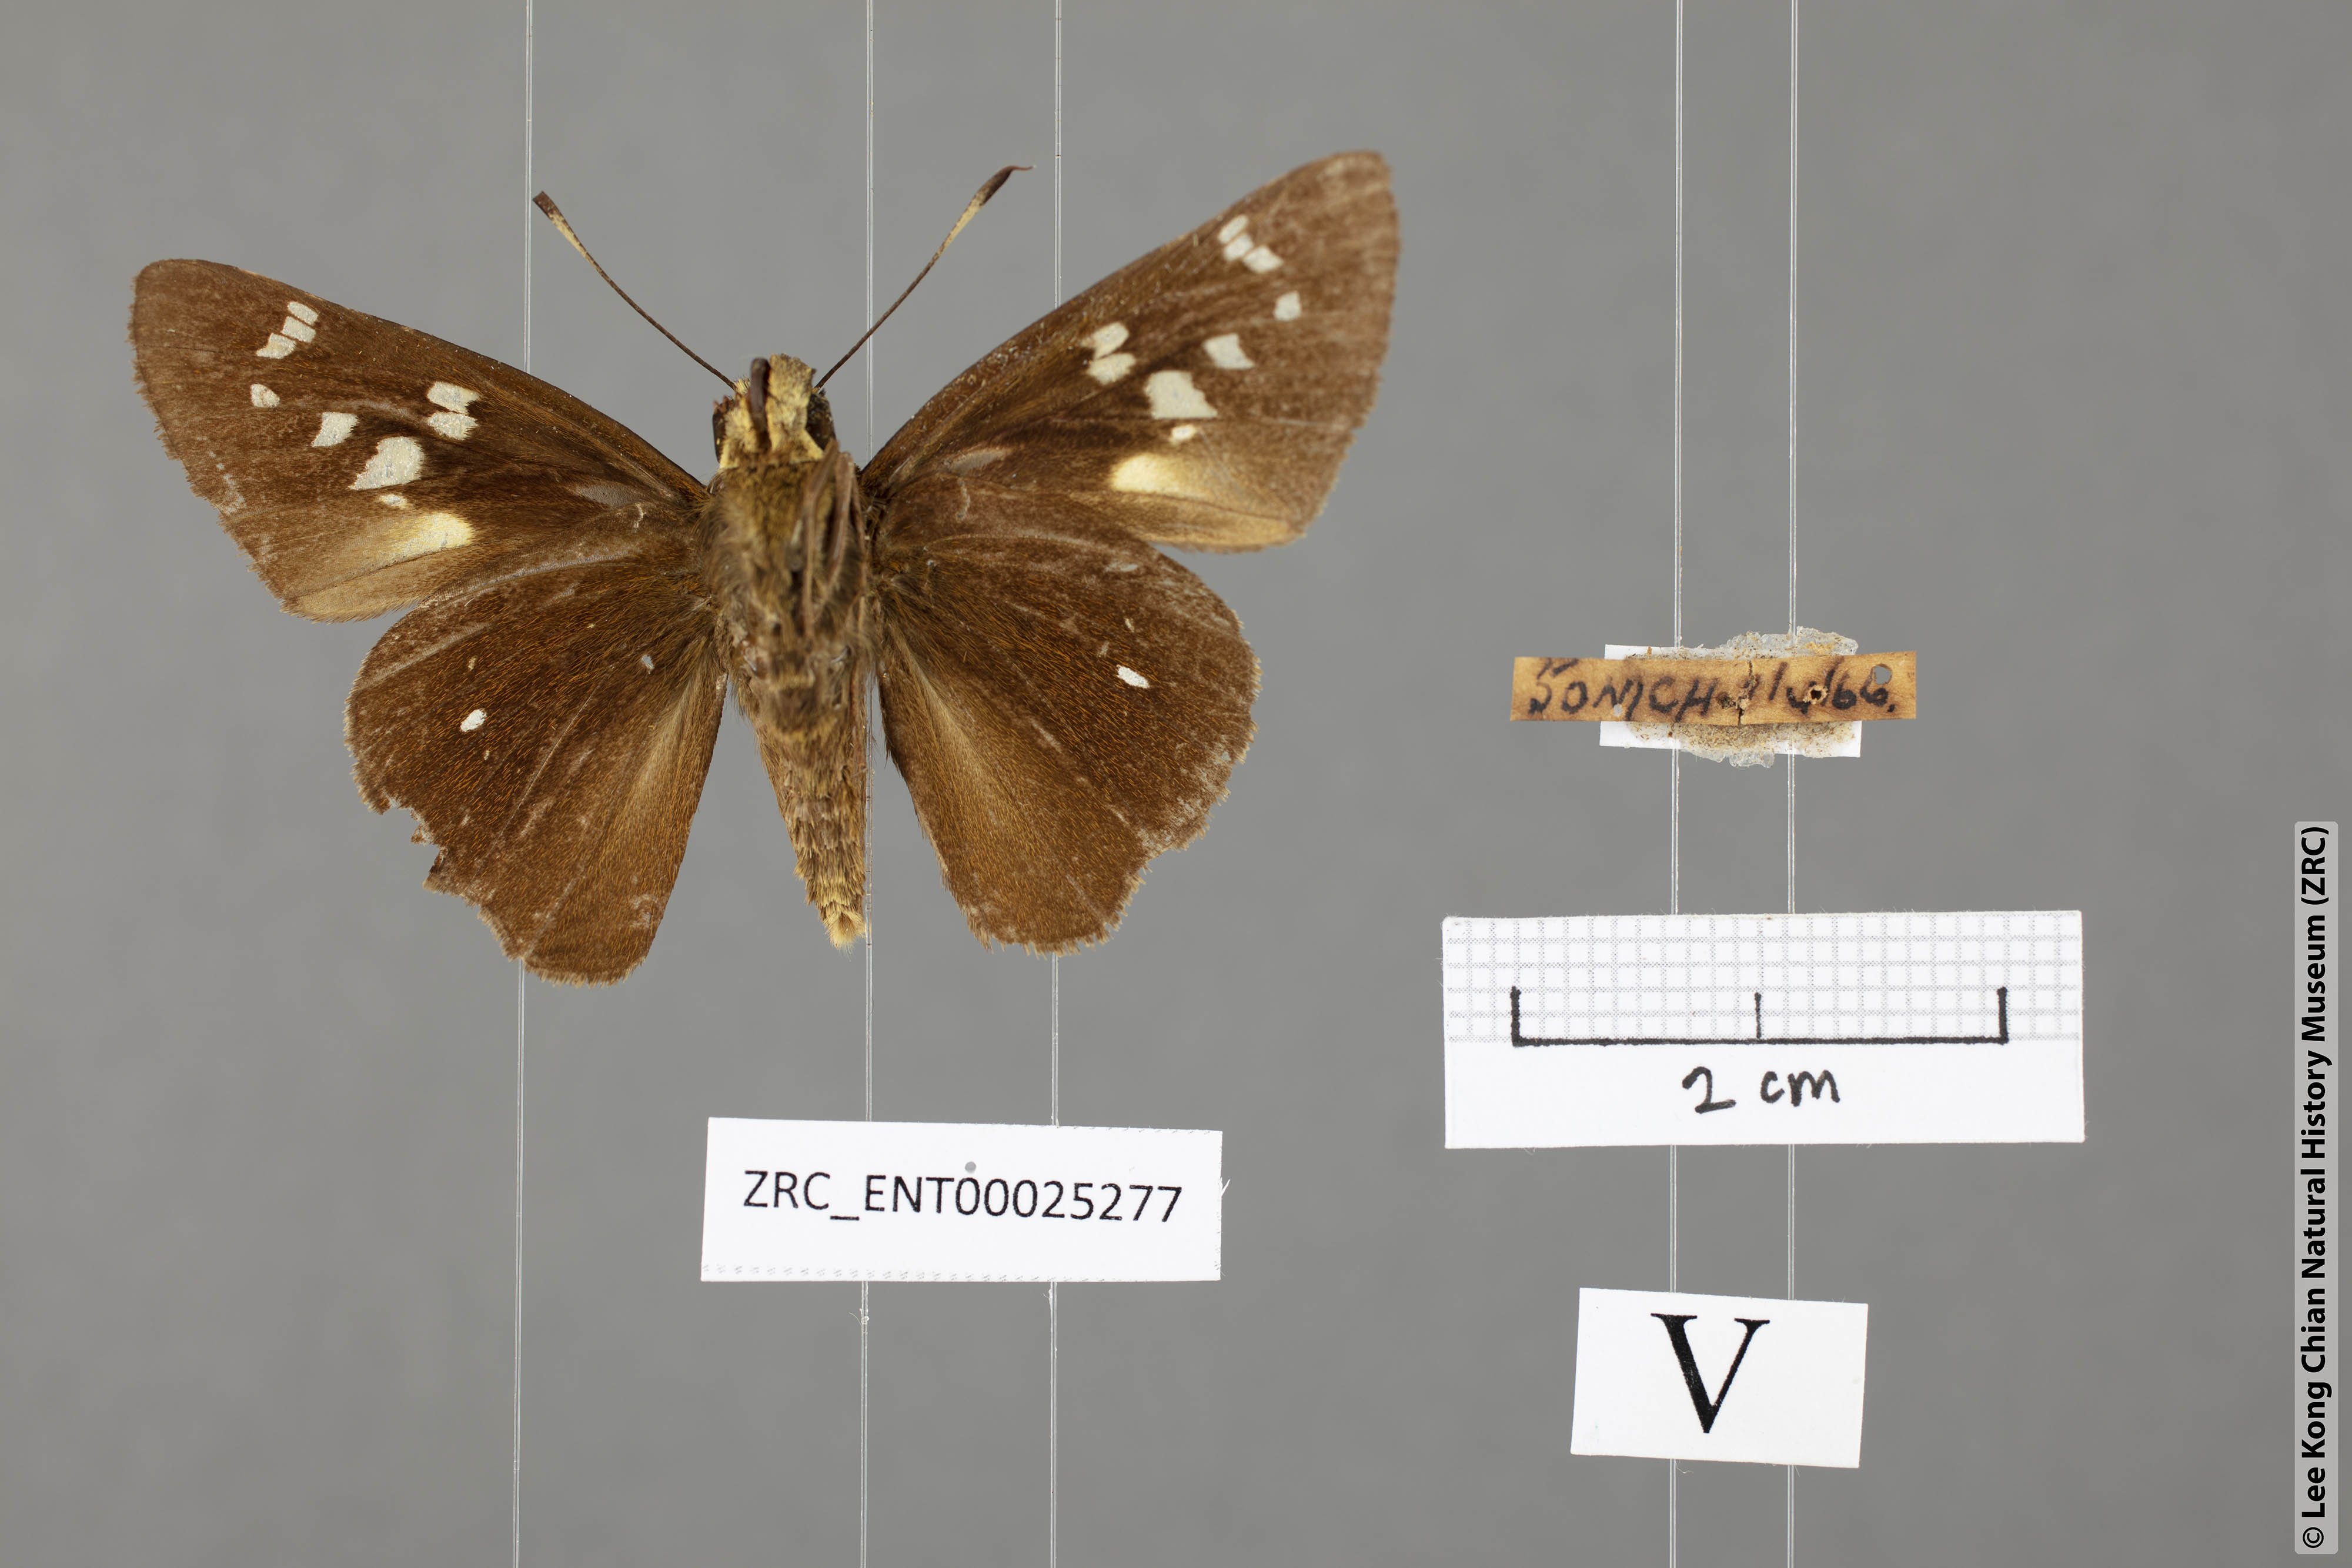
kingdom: Animalia
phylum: Arthropoda
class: Insecta
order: Lepidoptera
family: Hesperiidae
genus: Pelopidas
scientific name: Pelopidas assamensis
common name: Great swift
